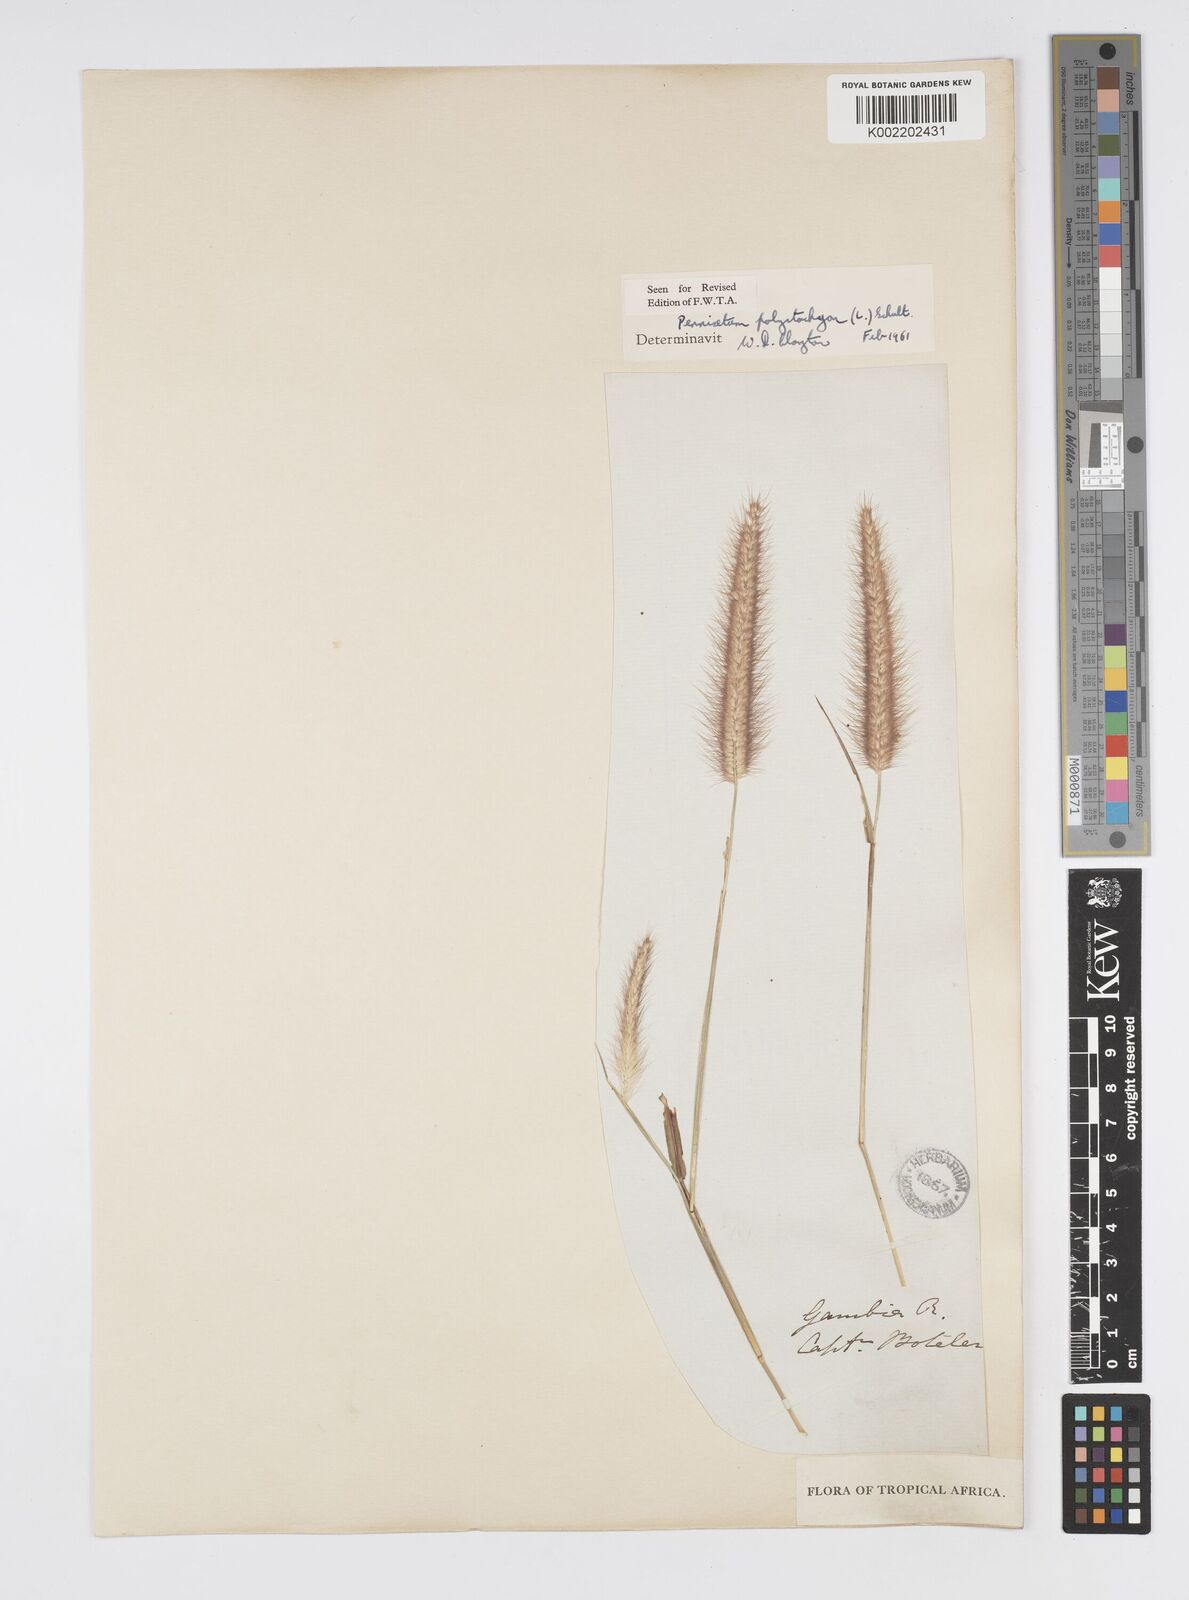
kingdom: Plantae
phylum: Tracheophyta
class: Liliopsida
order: Poales
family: Poaceae
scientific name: Poaceae
